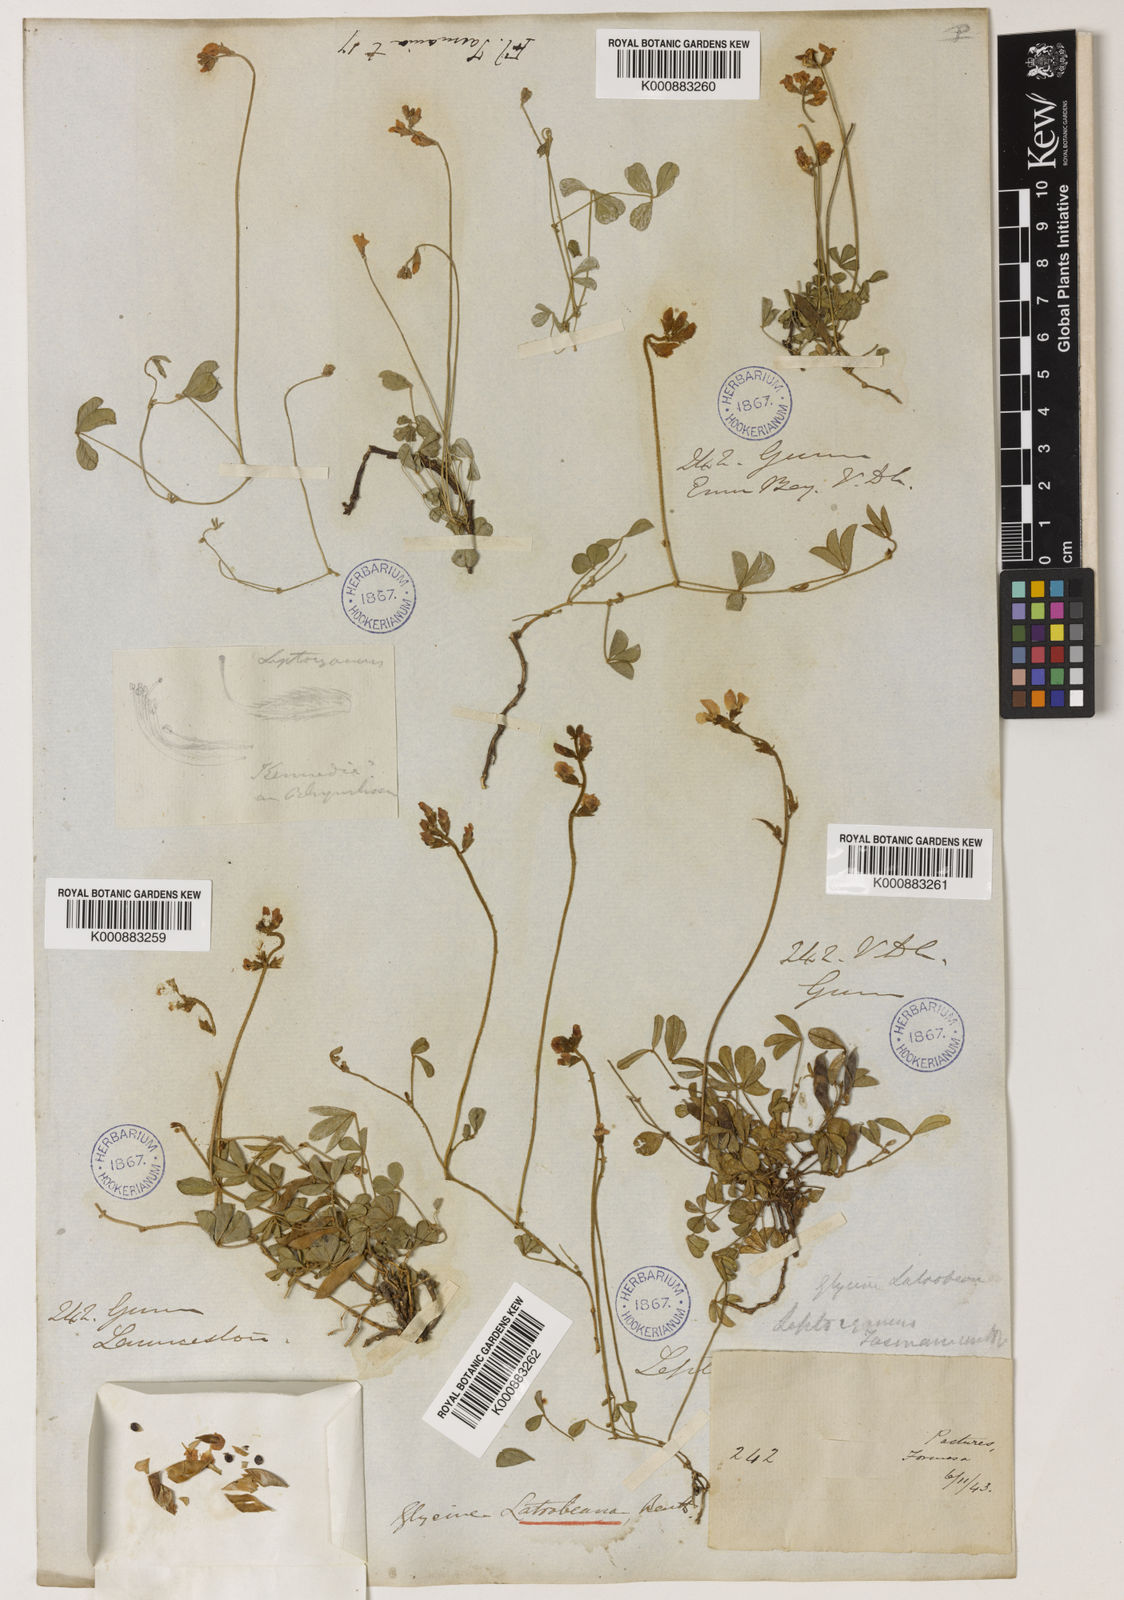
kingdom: Plantae
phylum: Tracheophyta
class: Magnoliopsida
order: Fabales
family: Fabaceae
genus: Glycine
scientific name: Glycine latrobeana
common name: Clover glycine
